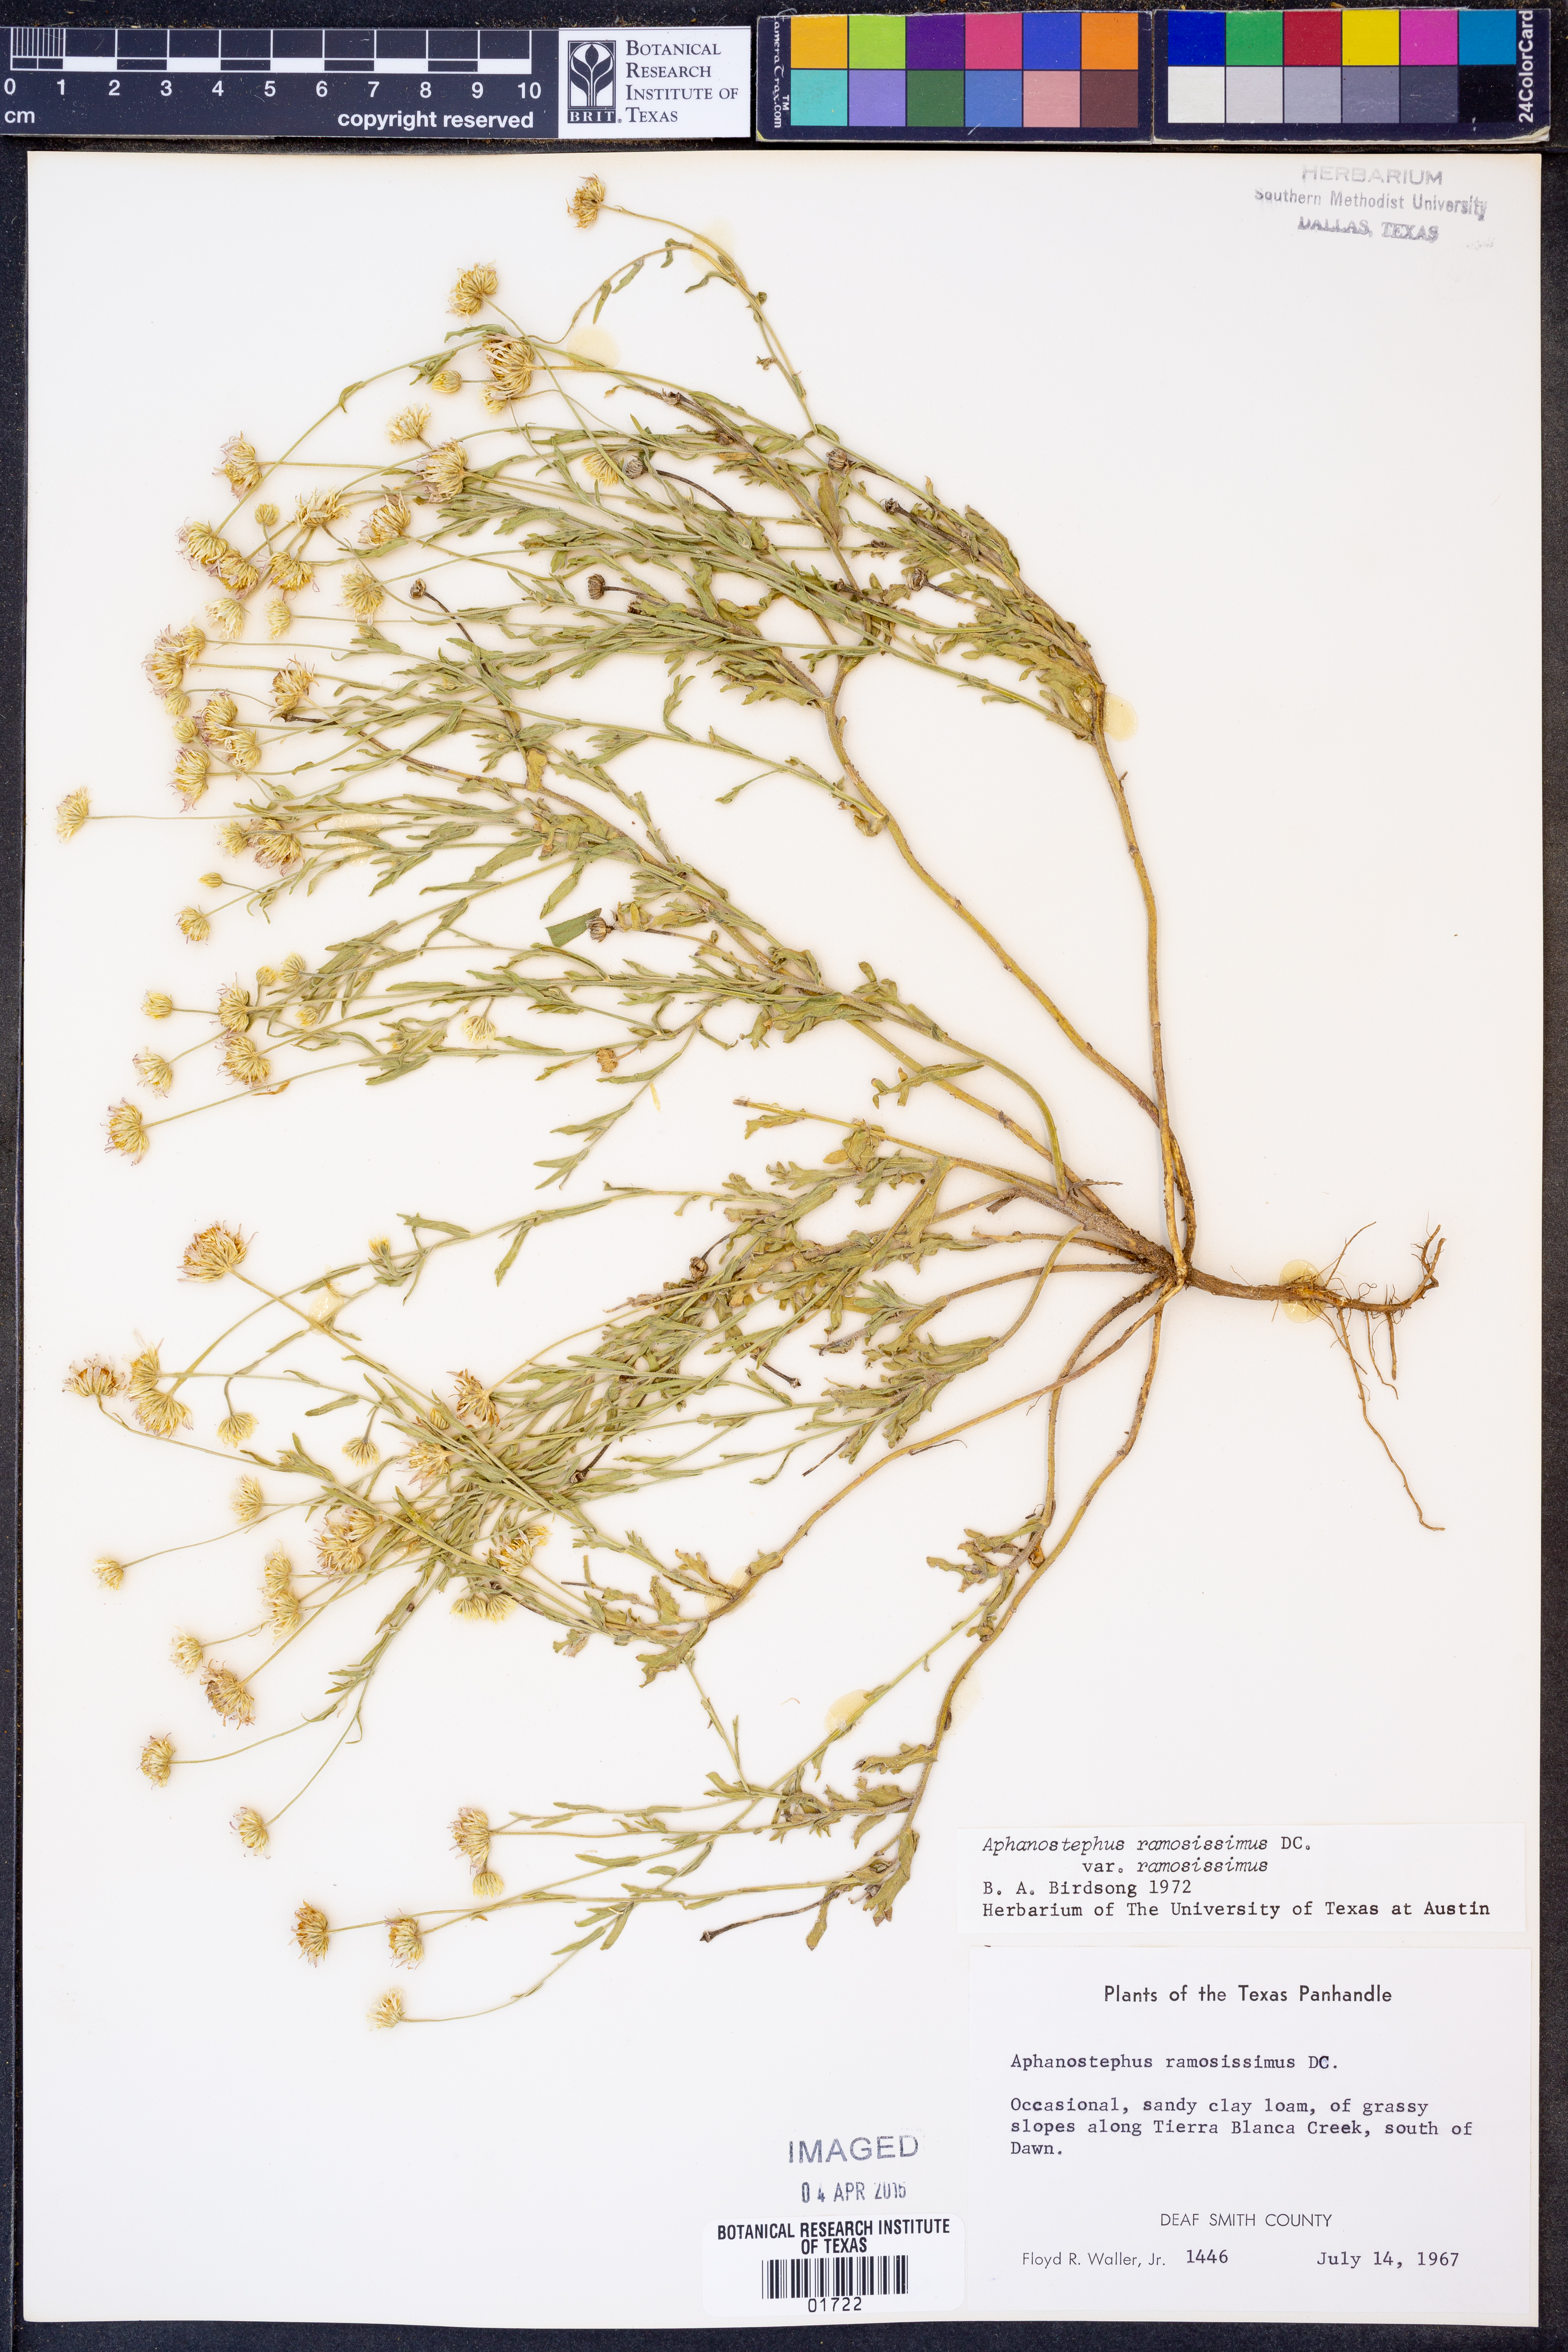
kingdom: Plantae
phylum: Tracheophyta
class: Magnoliopsida
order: Asterales
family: Asteraceae
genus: Aphanostephus
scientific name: Aphanostephus ramosissimus
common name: Plains lazy daisy
